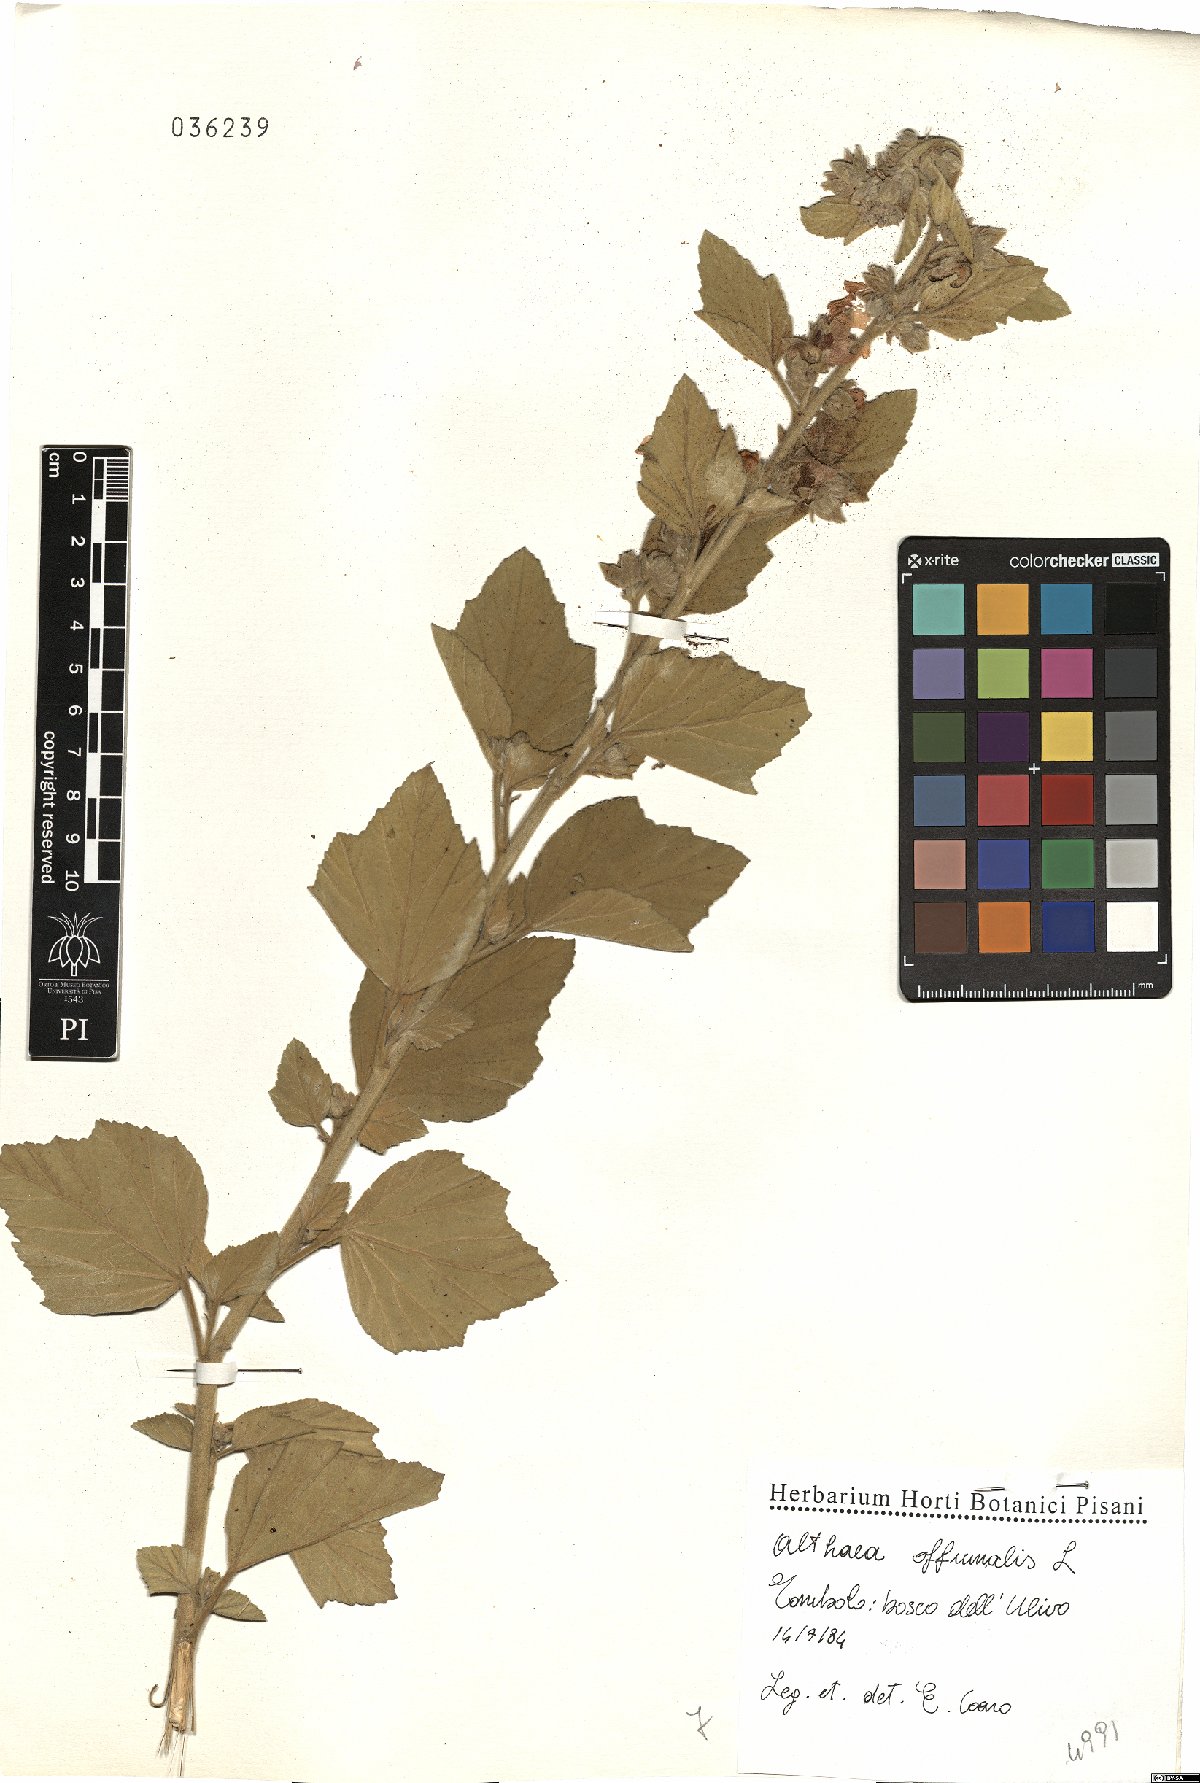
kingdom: Plantae
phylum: Tracheophyta
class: Magnoliopsida
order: Malvales
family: Malvaceae
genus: Althaea
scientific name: Althaea officinalis
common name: Marsh-mallow
